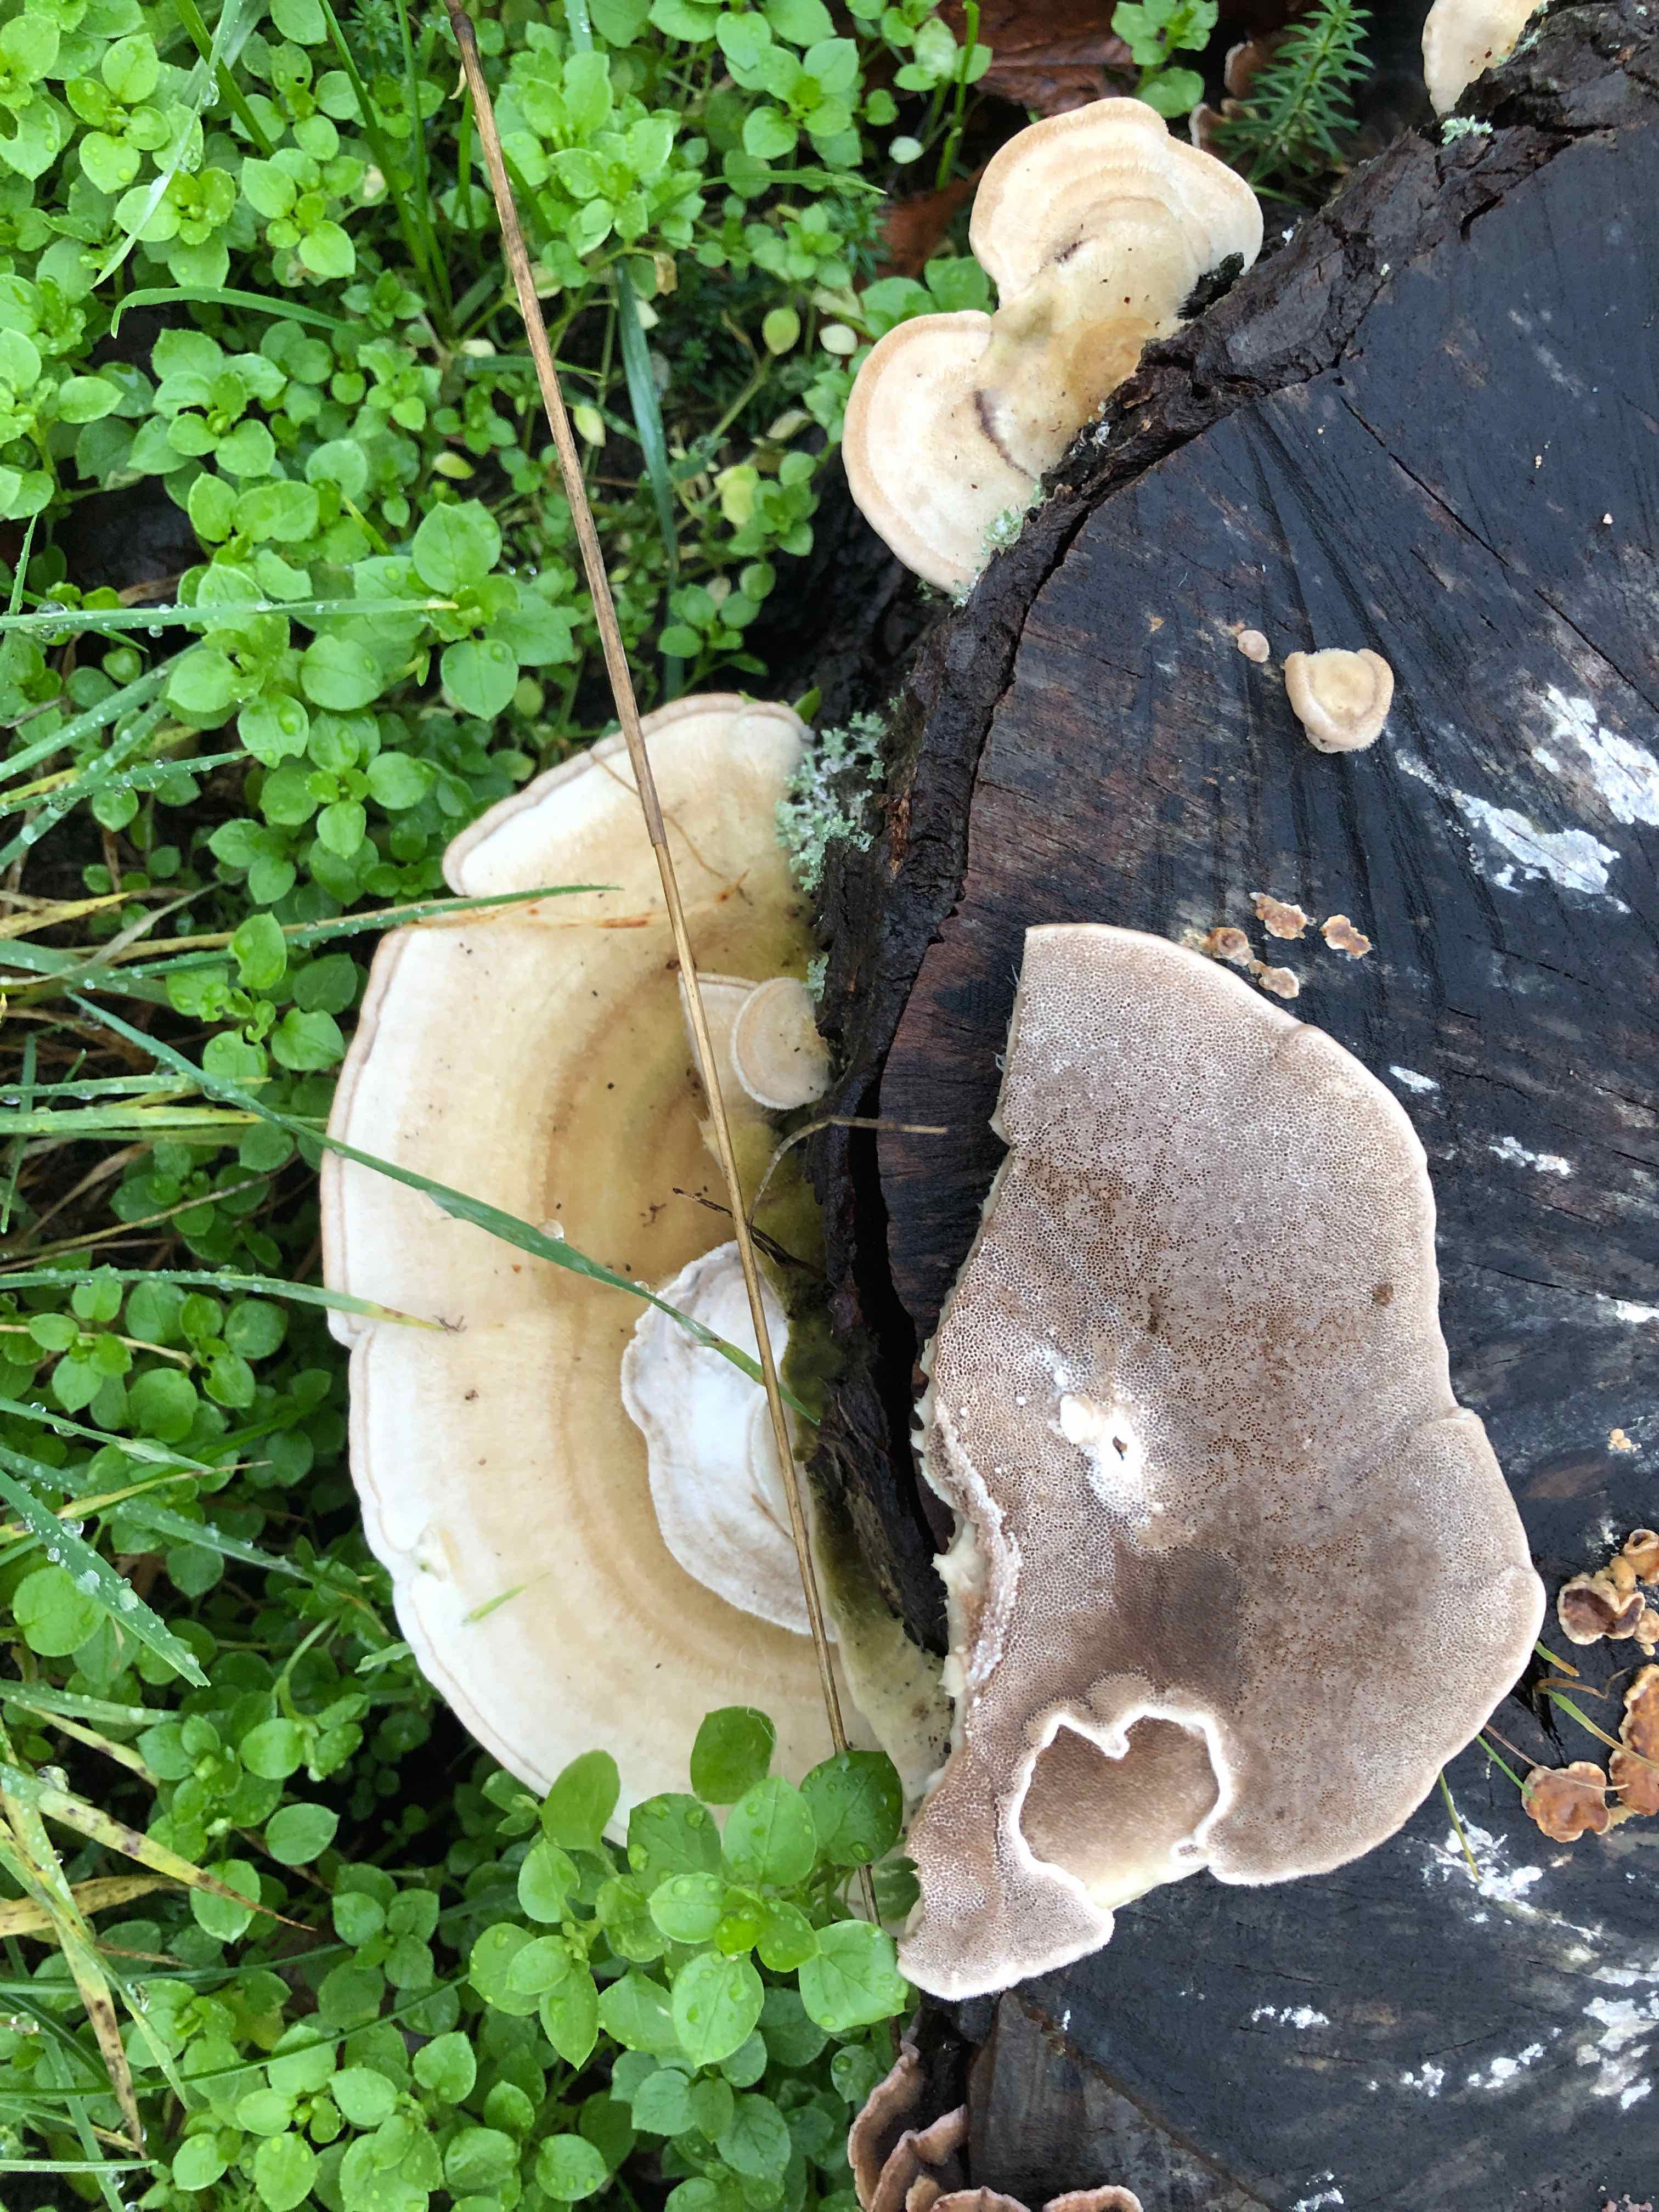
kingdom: Fungi
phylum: Basidiomycota
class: Agaricomycetes
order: Polyporales
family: Polyporaceae
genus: Trametes
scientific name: Trametes hirsuta
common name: håret læderporesvamp
